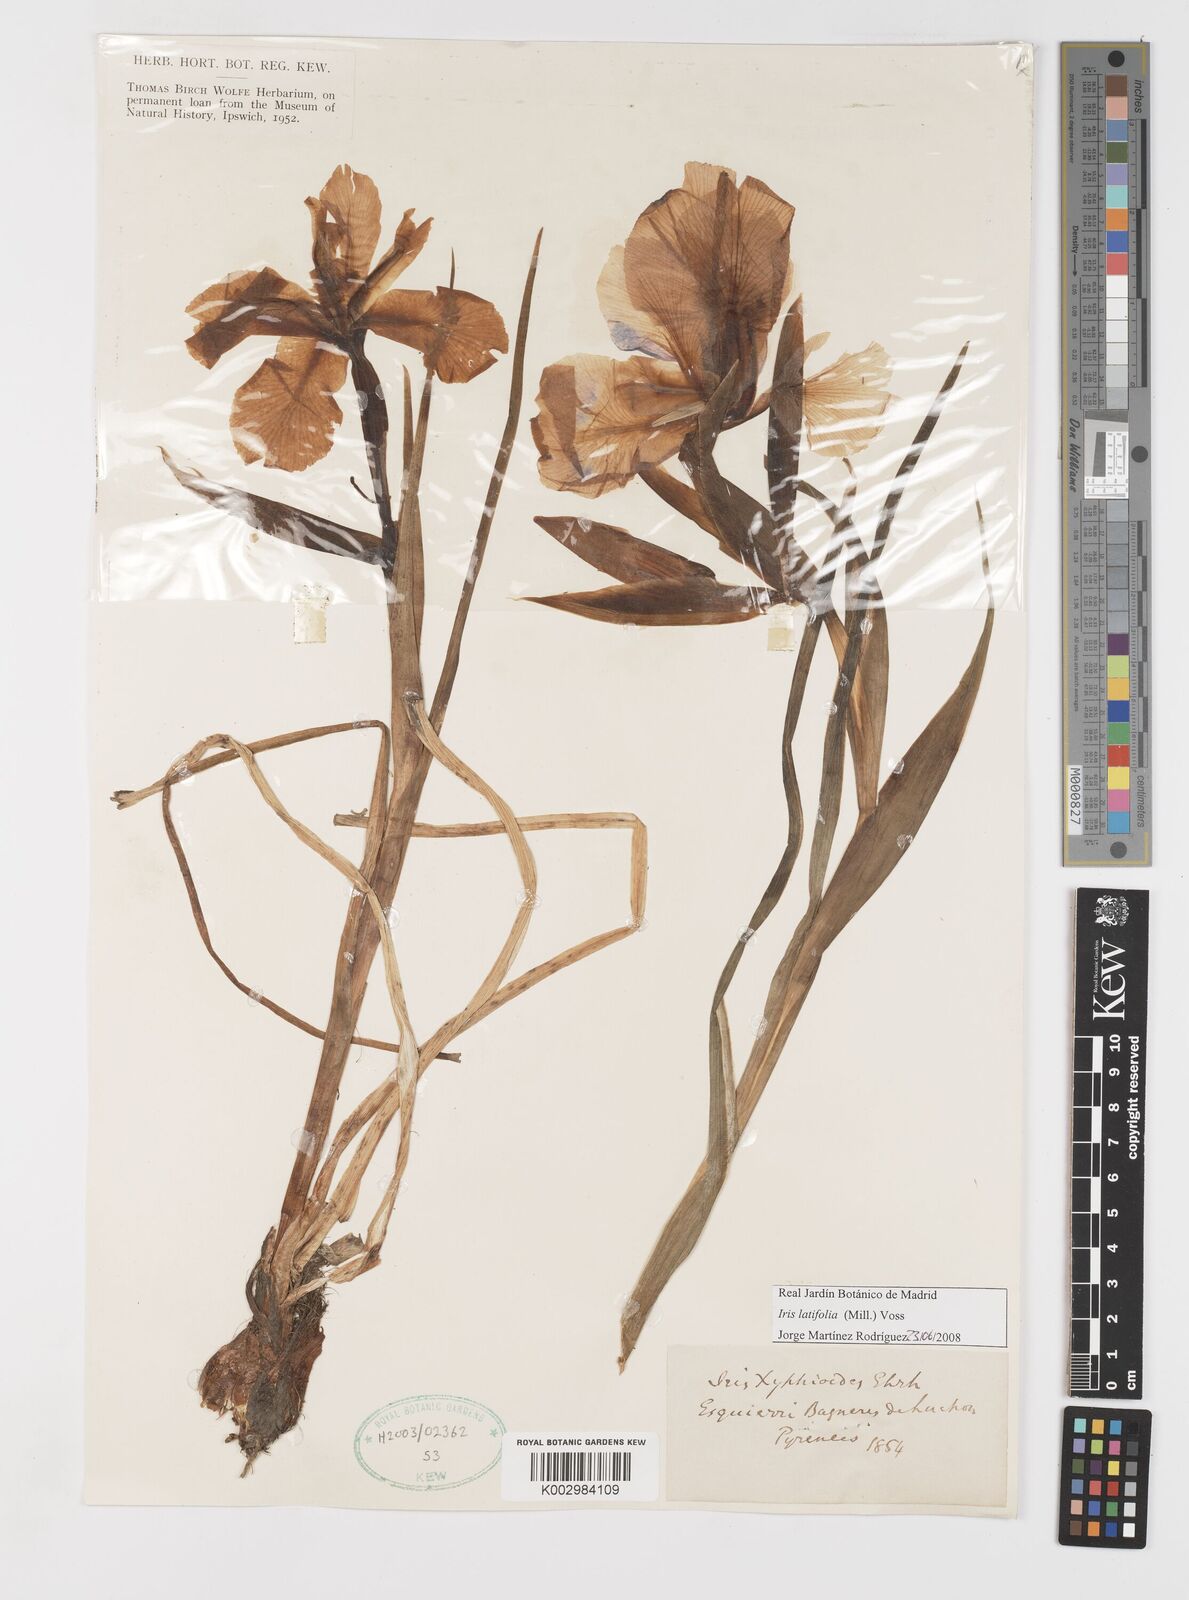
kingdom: Plantae
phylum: Tracheophyta
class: Liliopsida
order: Asparagales
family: Iridaceae
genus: Iris
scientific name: Iris jacquinii
